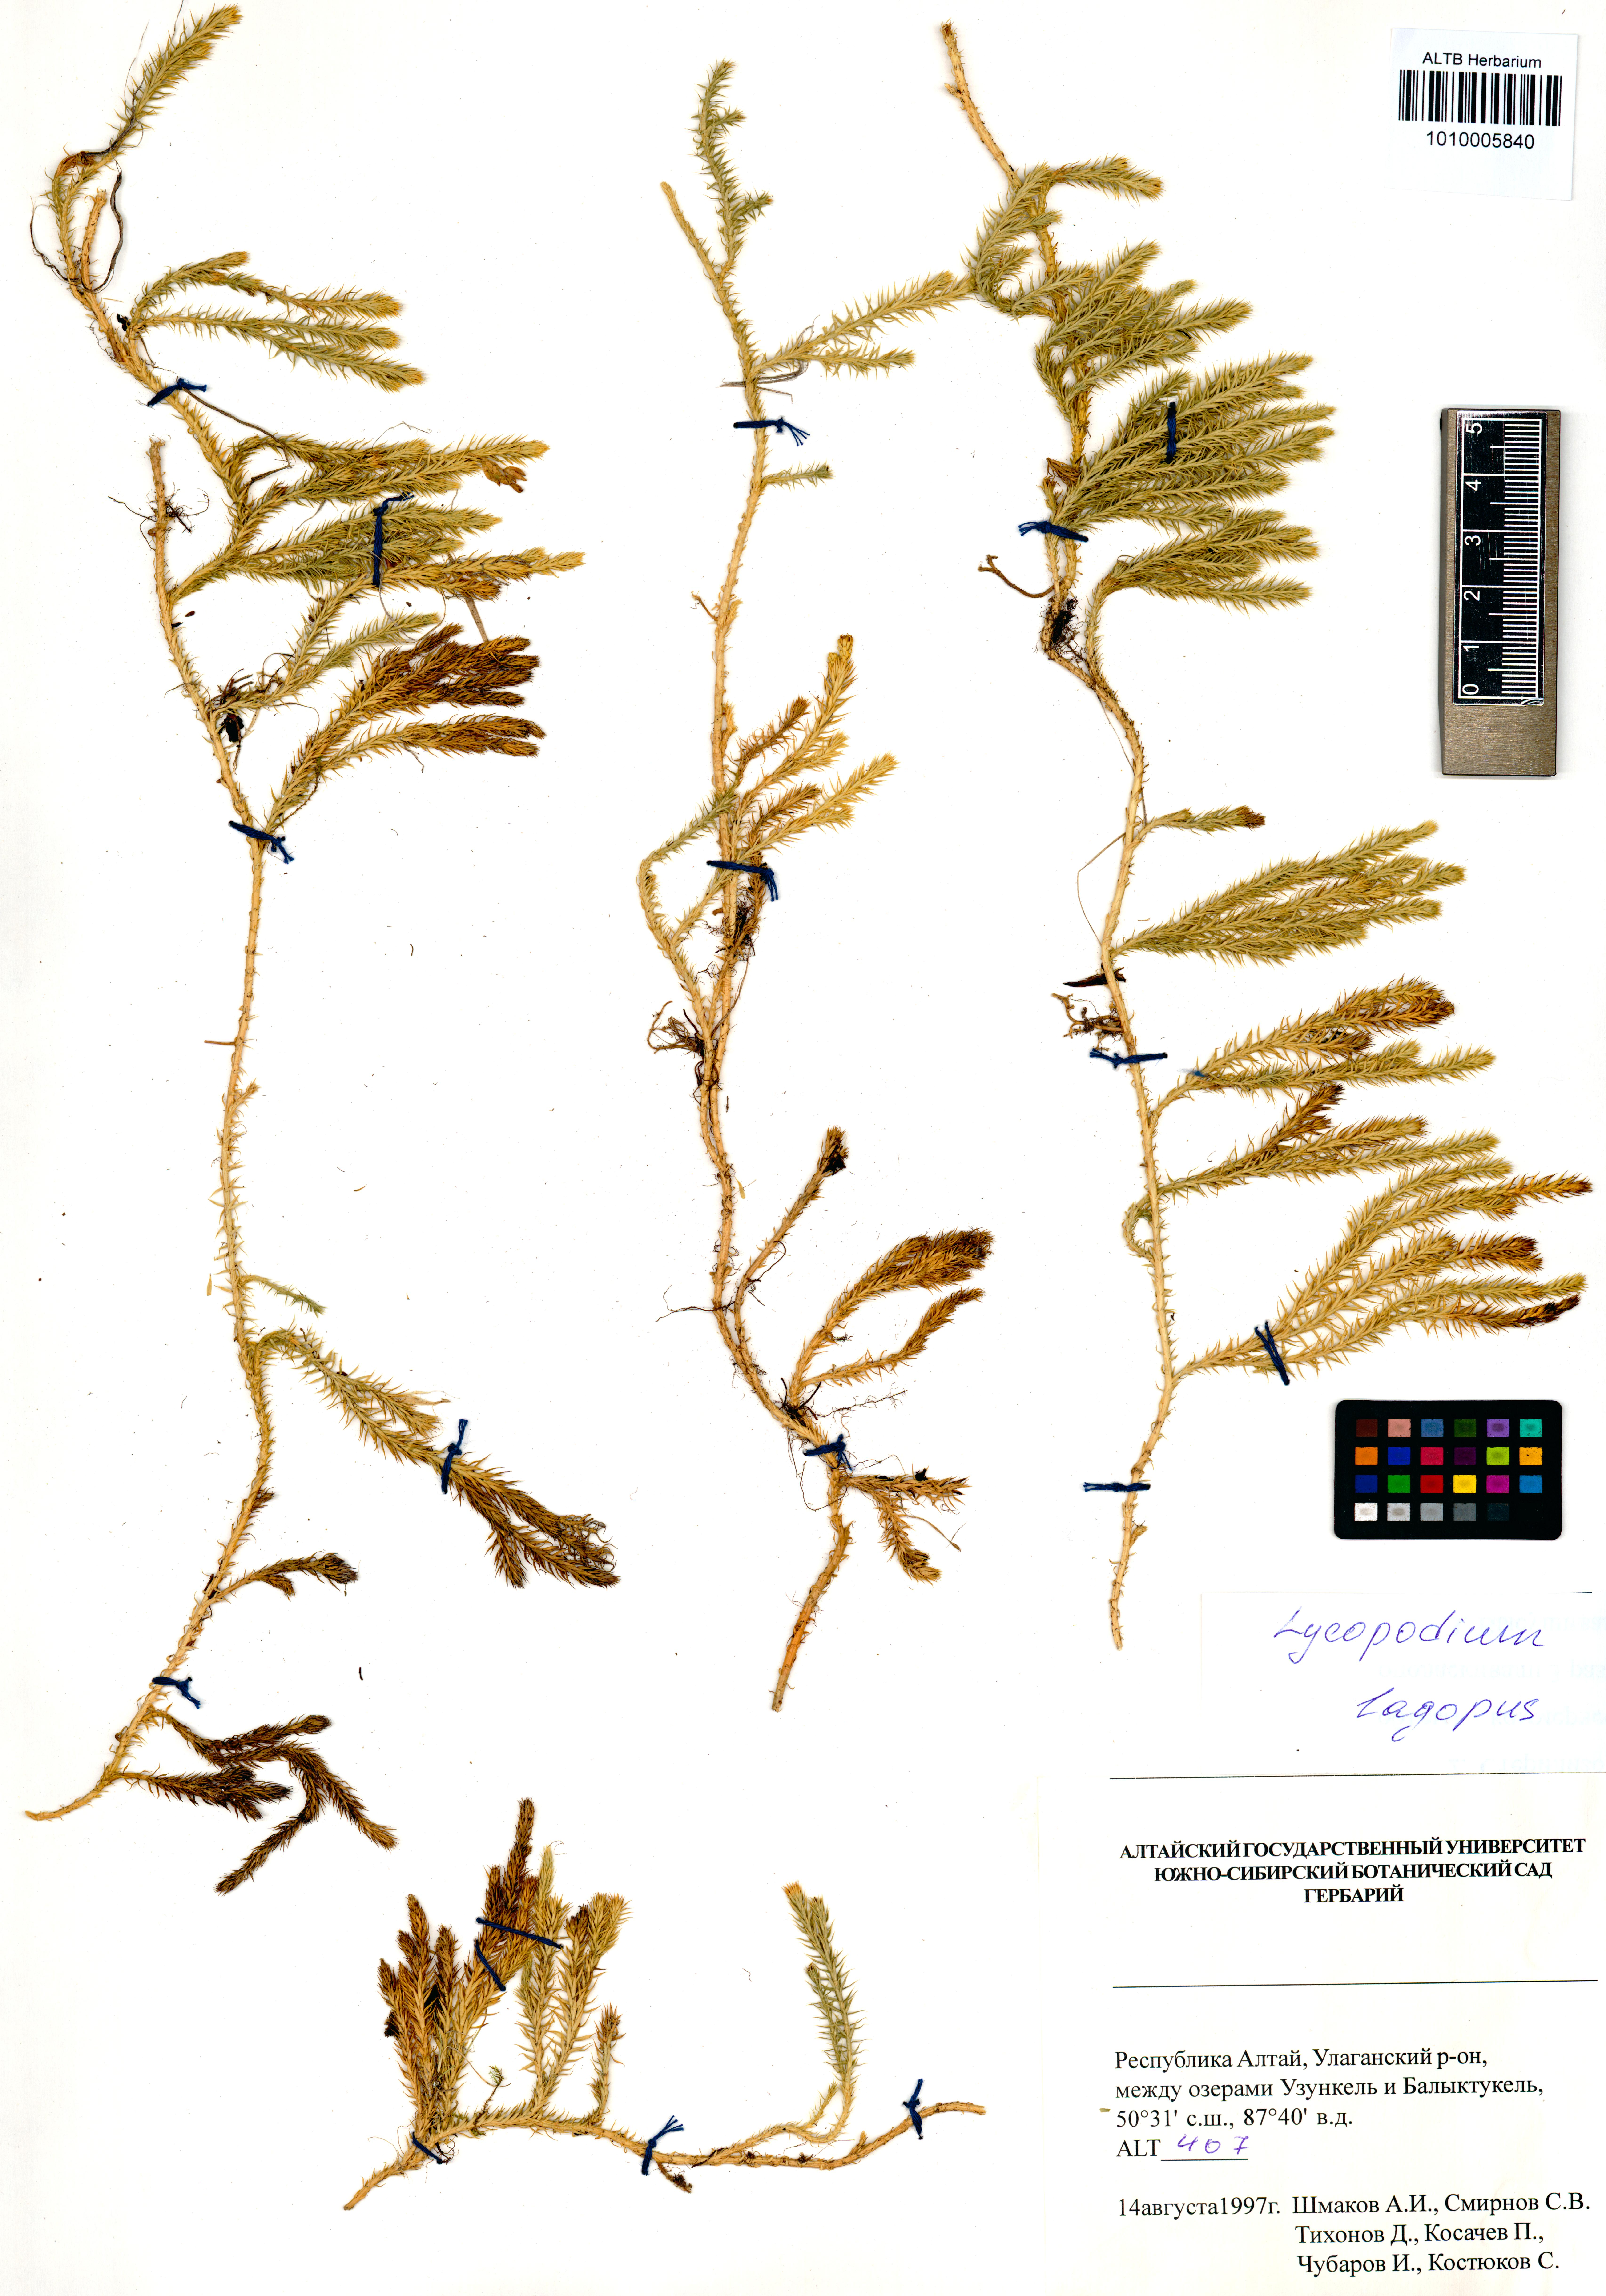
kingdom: Plantae
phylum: Tracheophyta
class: Lycopodiopsida
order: Lycopodiales
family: Lycopodiaceae
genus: Lycopodium
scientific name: Lycopodium lagopus
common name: One-cone clubmoss
